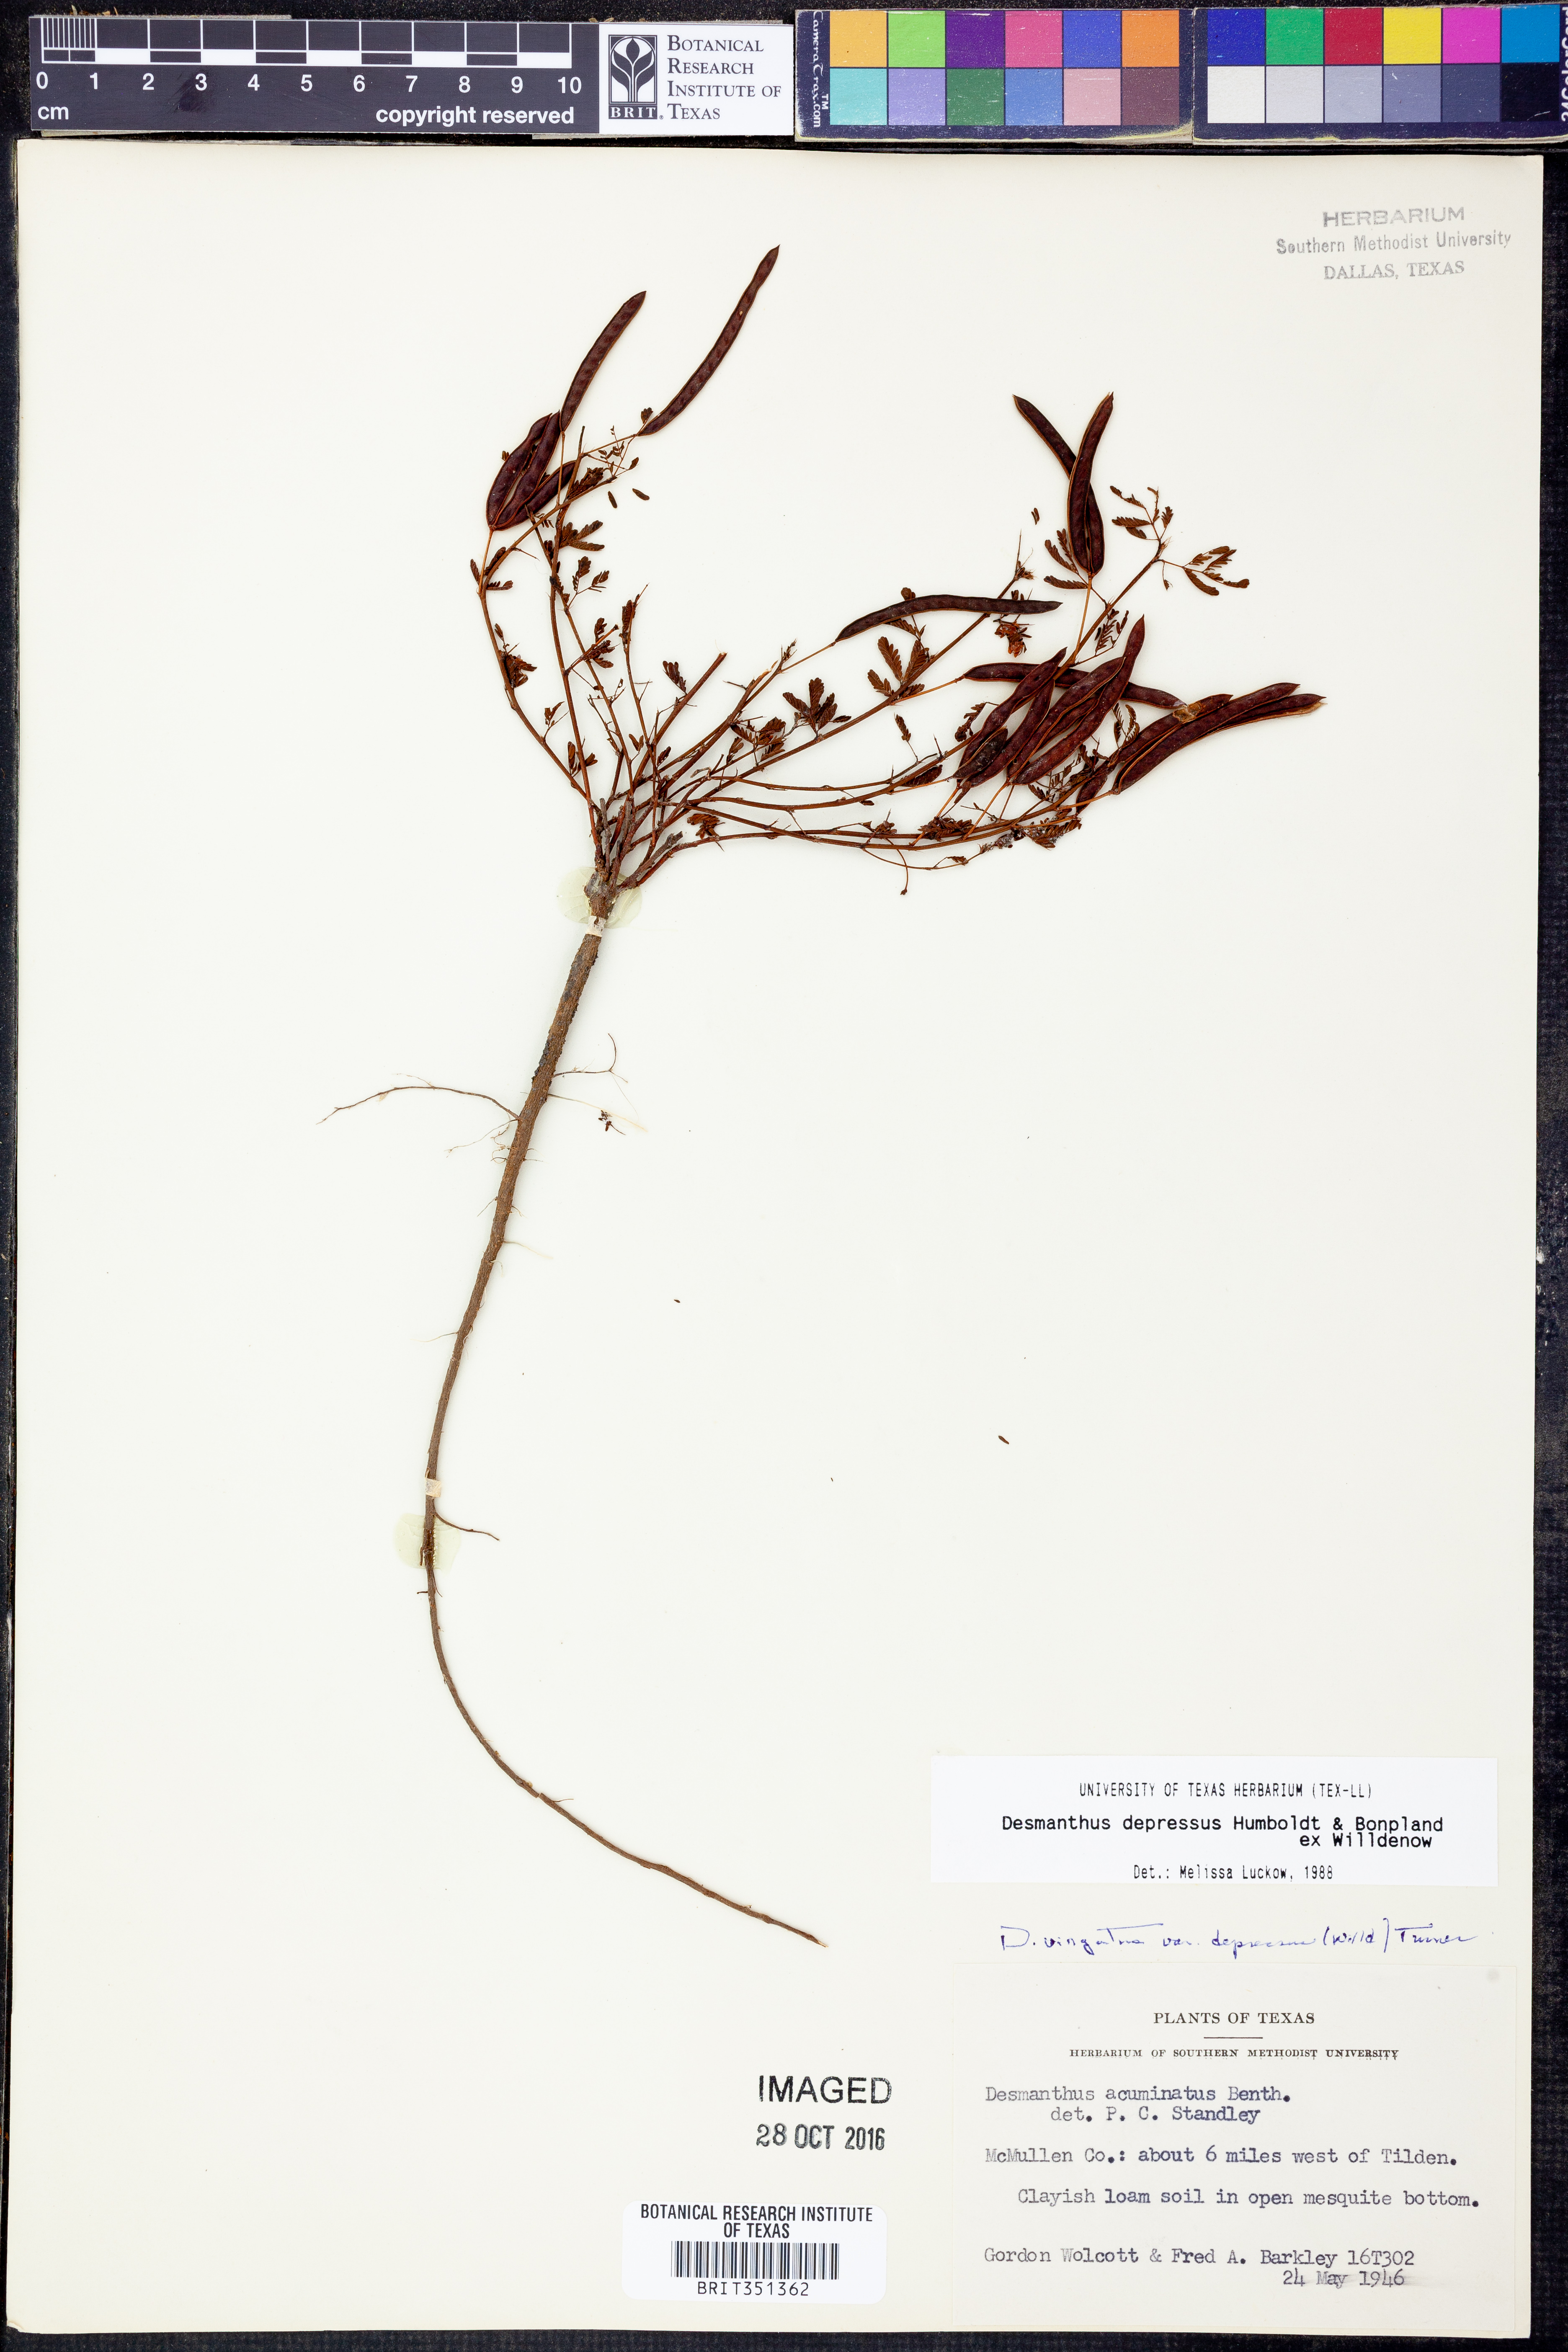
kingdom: Plantae
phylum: Tracheophyta
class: Magnoliopsida
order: Fabales
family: Fabaceae
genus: Desmanthus
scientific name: Desmanthus virgatus
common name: Wild tantan
